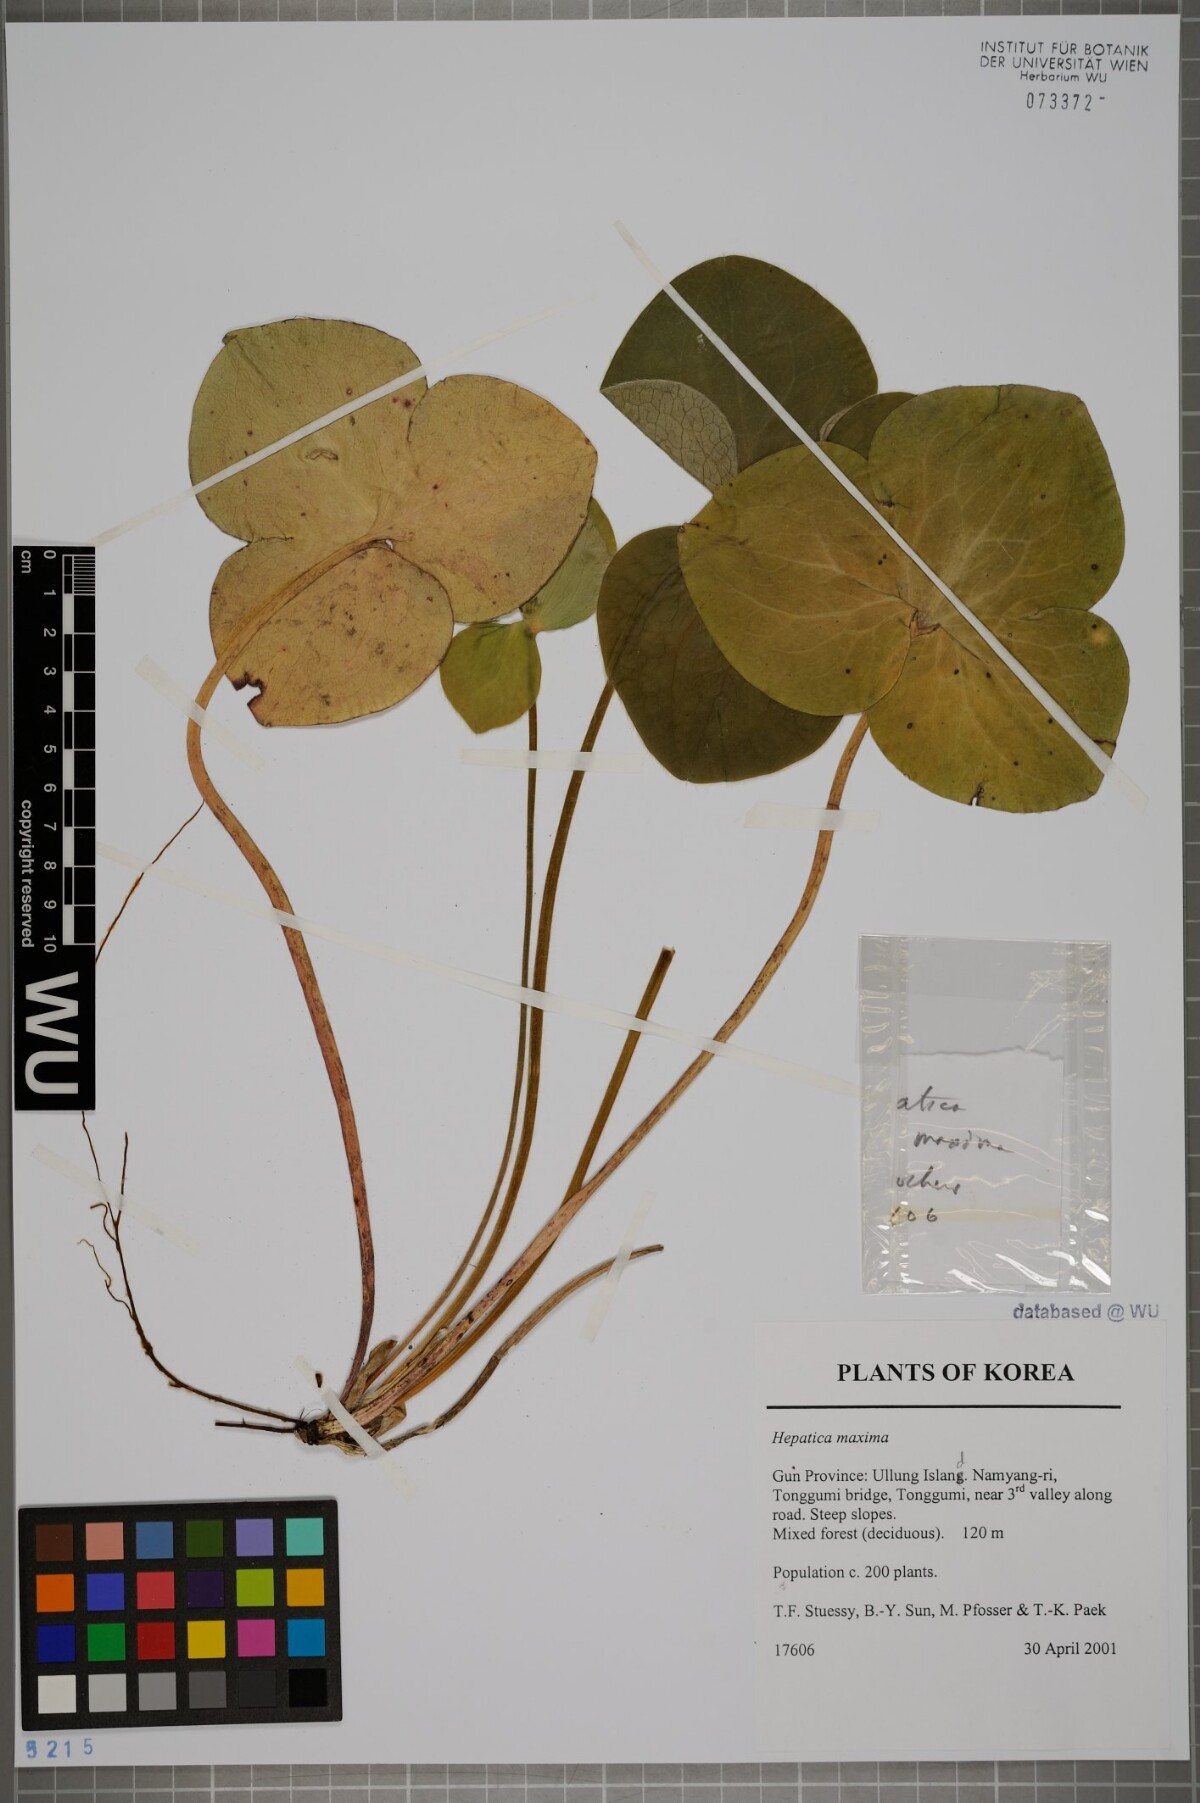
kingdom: Plantae
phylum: Tracheophyta
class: Magnoliopsida
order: Ranunculales
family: Ranunculaceae
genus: Hepatica
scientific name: Hepatica maxima
